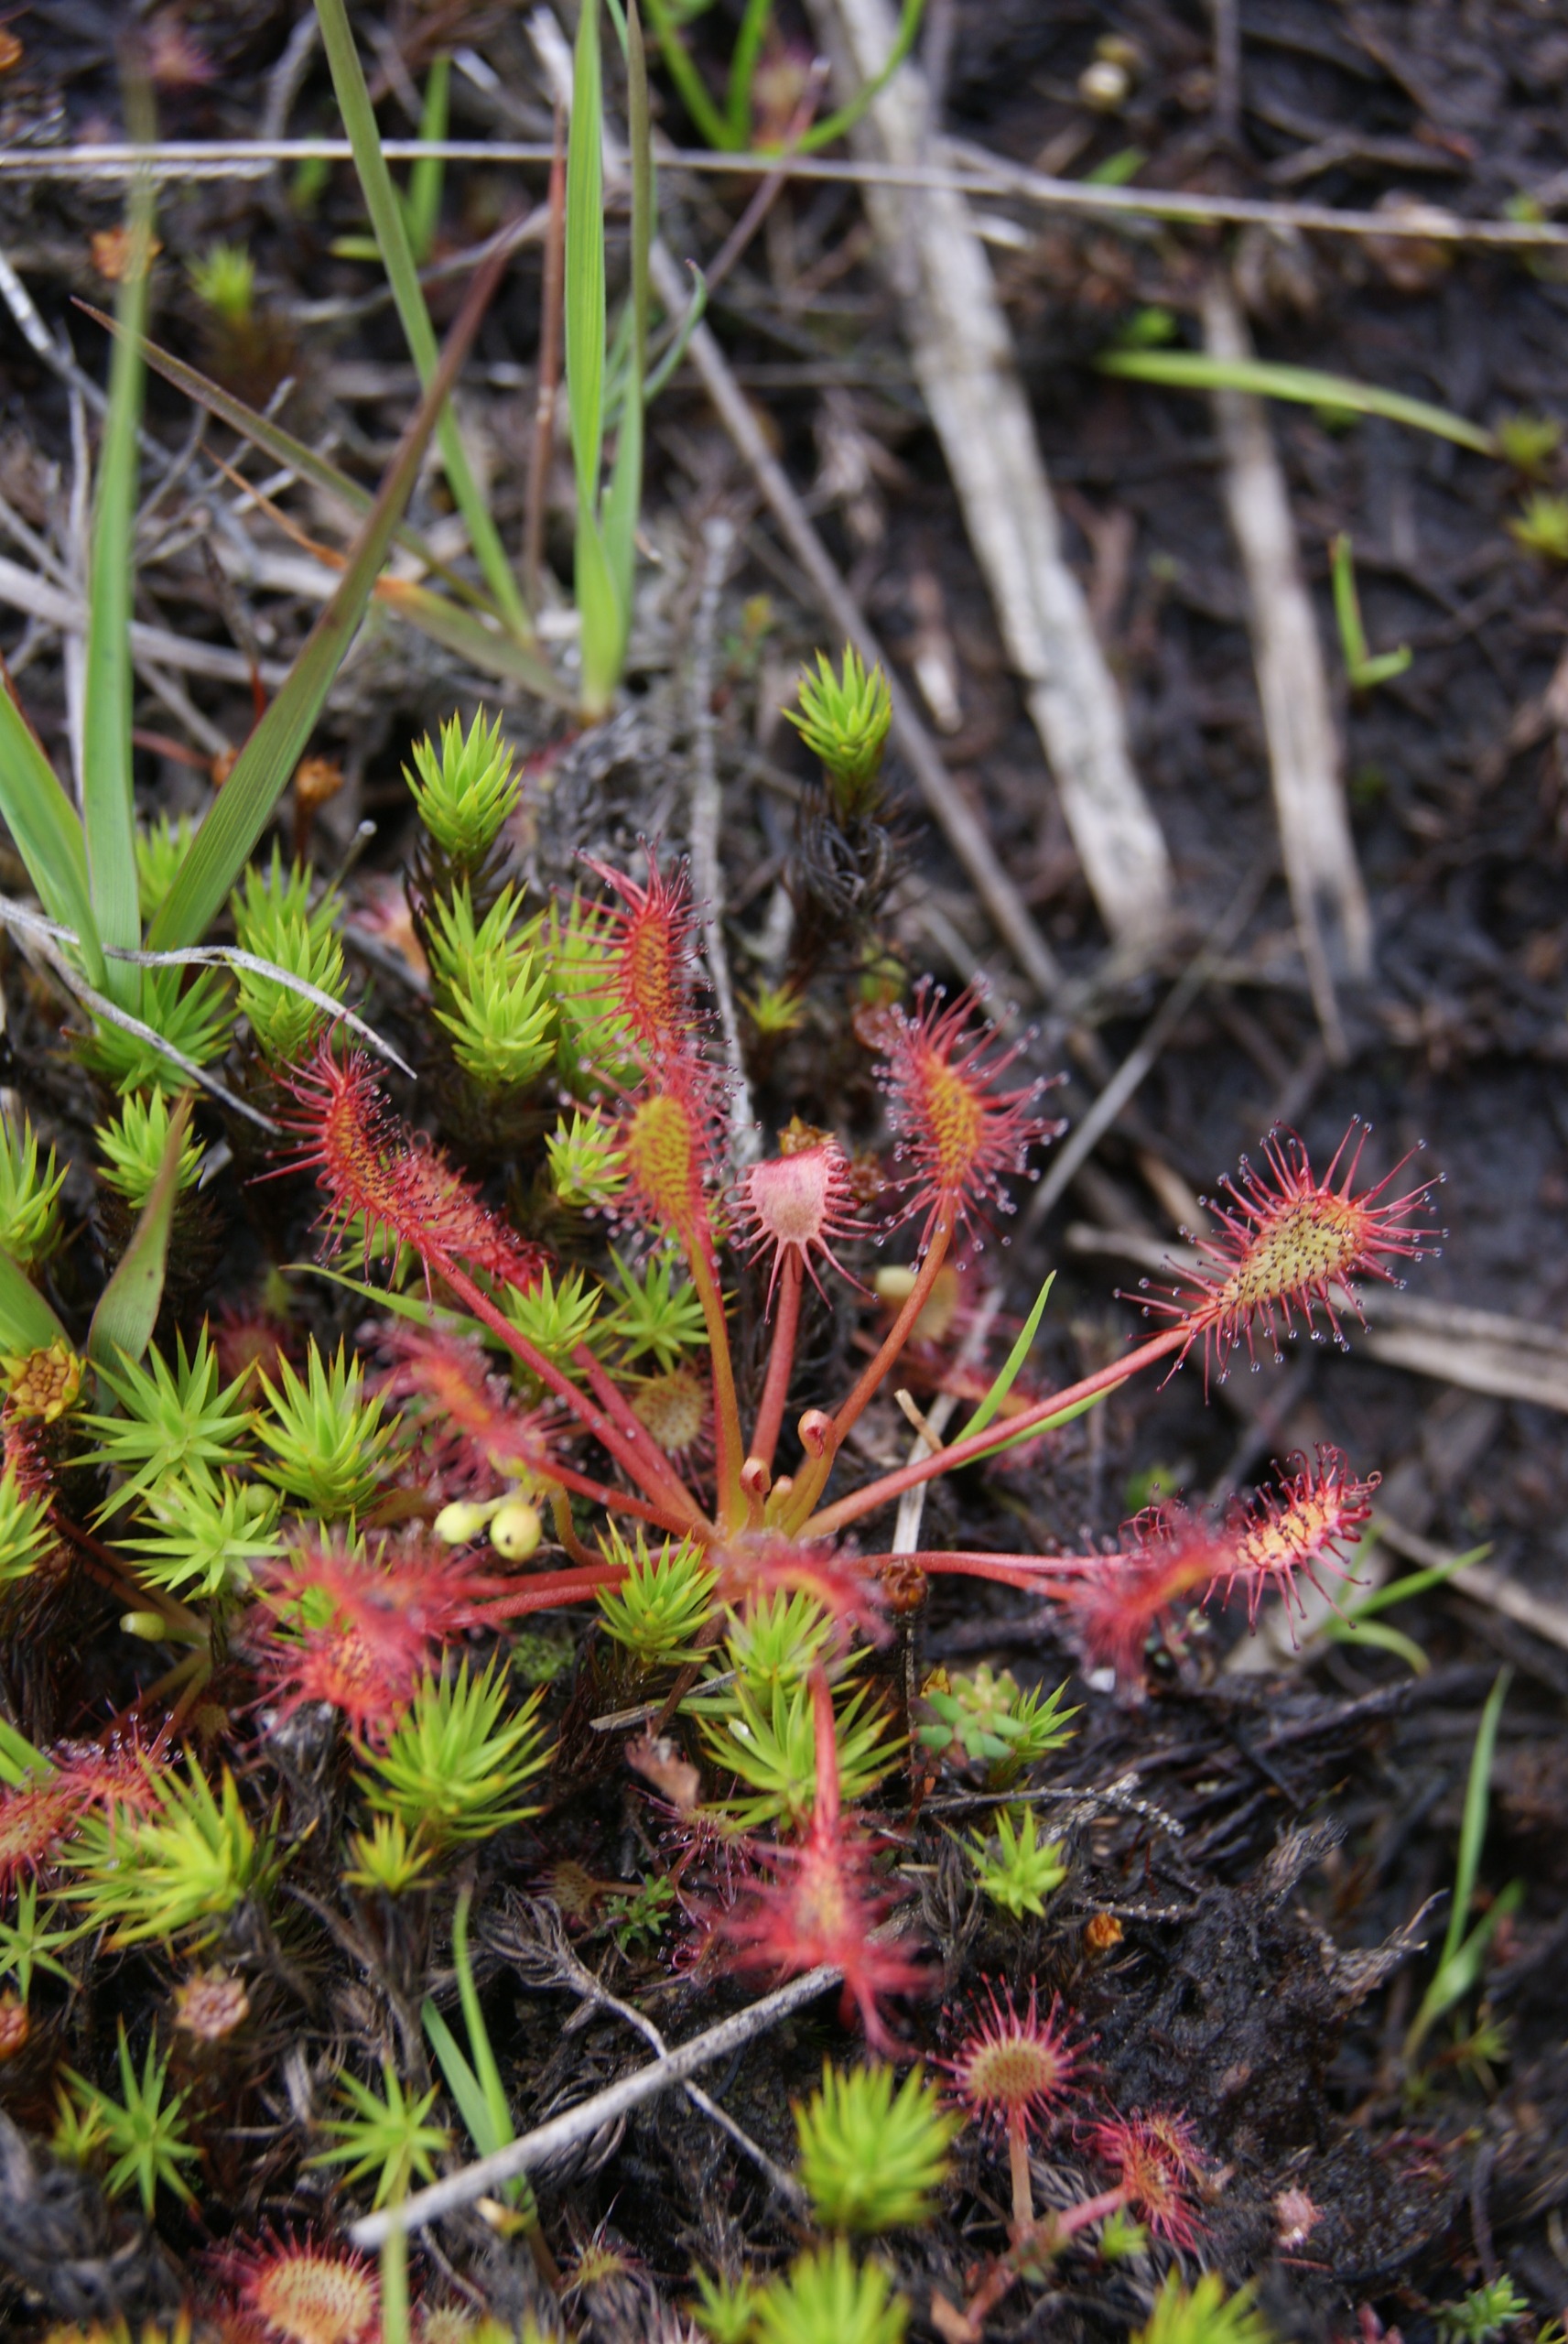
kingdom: Plantae
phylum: Tracheophyta
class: Magnoliopsida
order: Caryophyllales
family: Droseraceae
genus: Drosera
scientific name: Drosera intermedia
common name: Liden soldug
